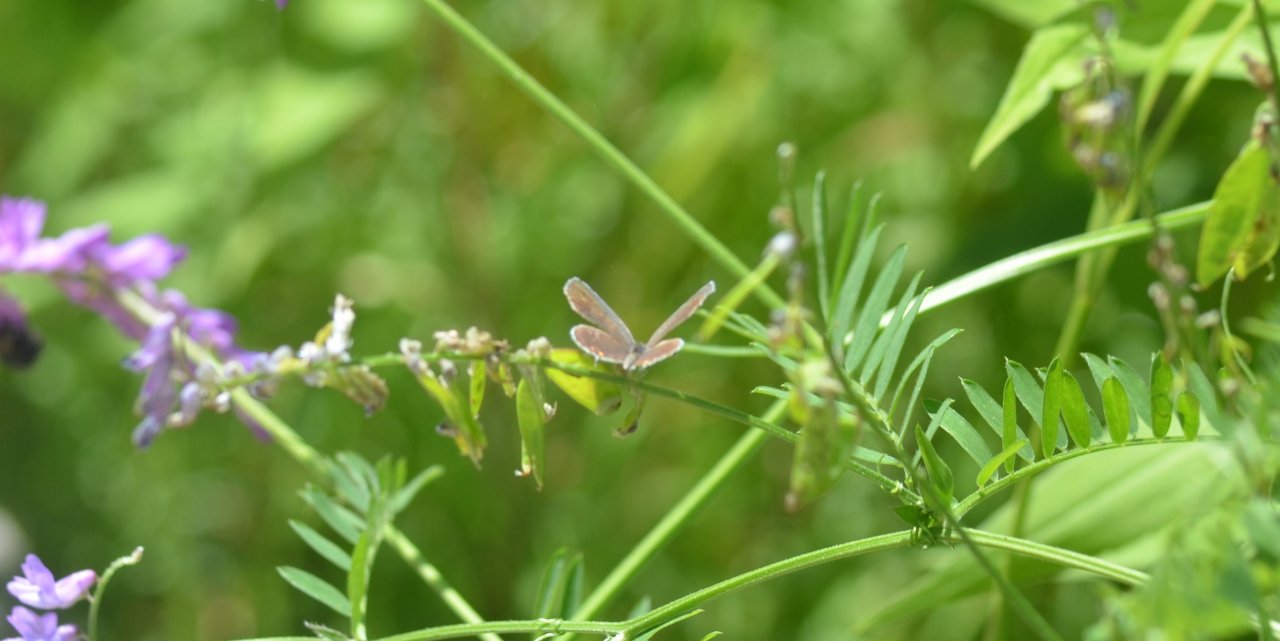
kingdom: Animalia
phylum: Arthropoda
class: Insecta
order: Lepidoptera
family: Lycaenidae
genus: Elkalyce
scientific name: Elkalyce comyntas
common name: Eastern Tailed-Blue
